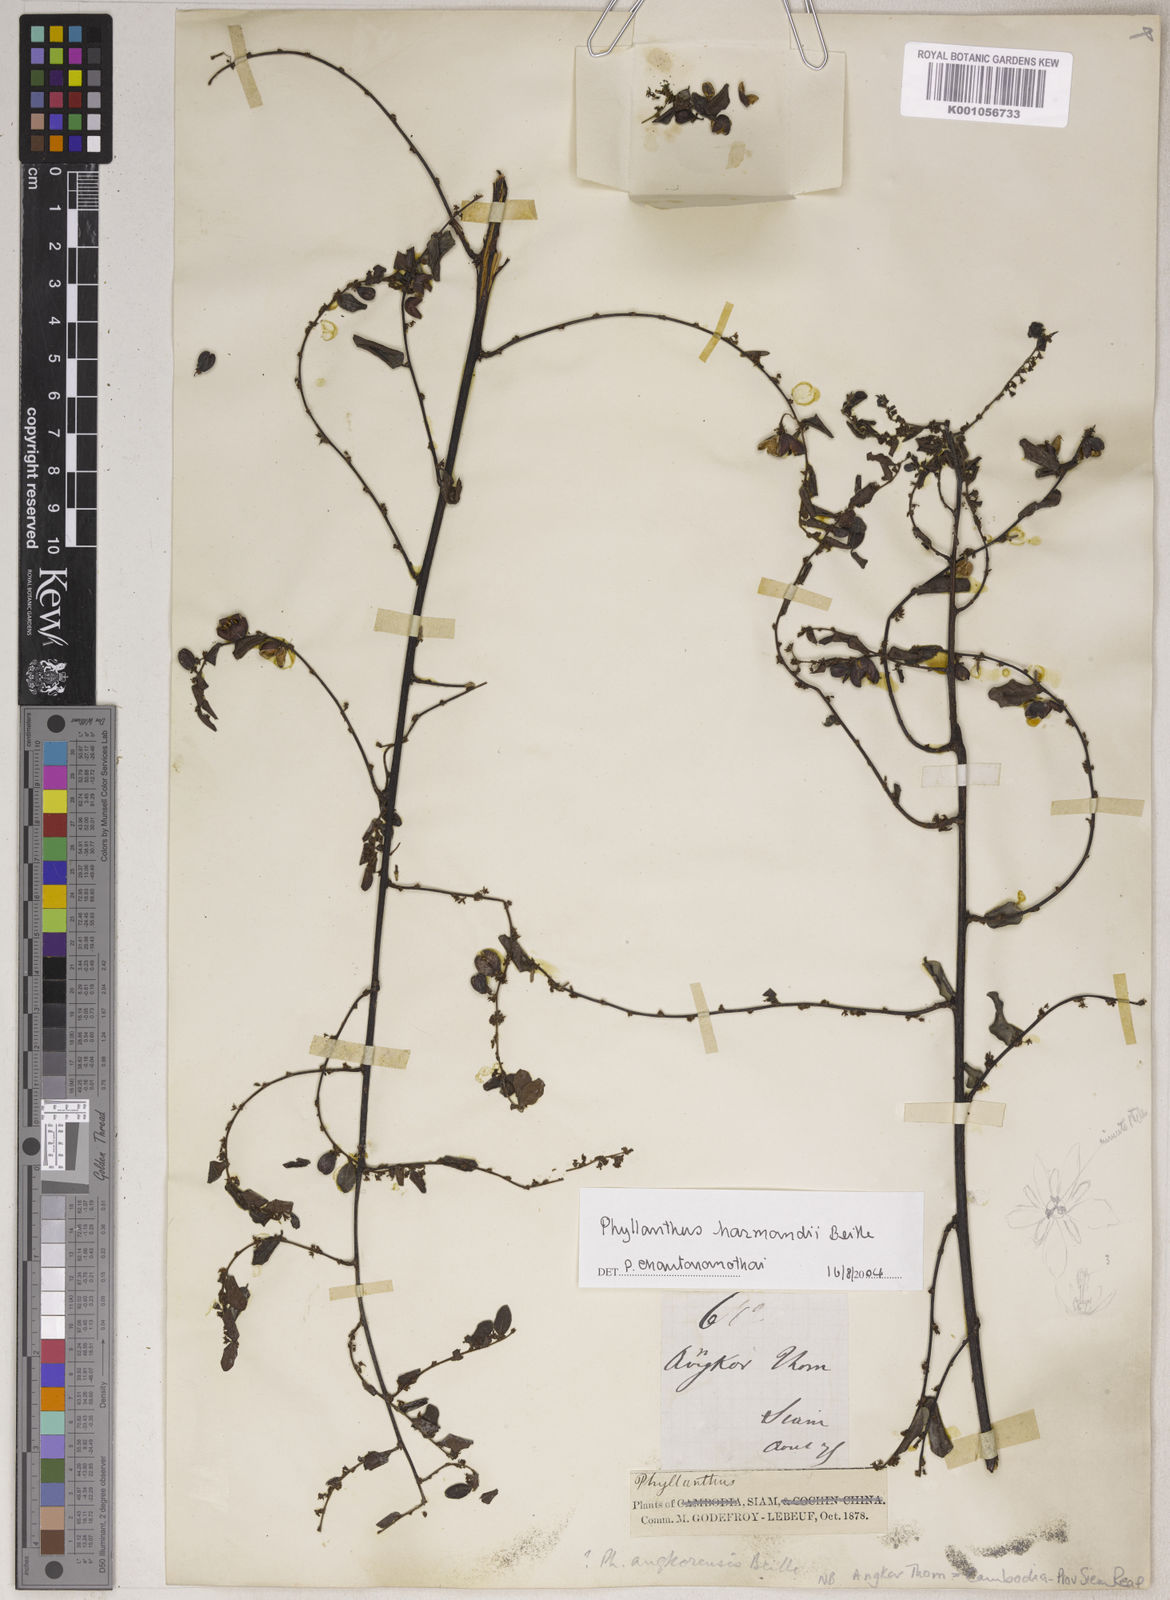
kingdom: Plantae
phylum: Tracheophyta
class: Magnoliopsida
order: Malpighiales
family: Phyllanthaceae
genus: Phyllanthus
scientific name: Phyllanthus harmandii
